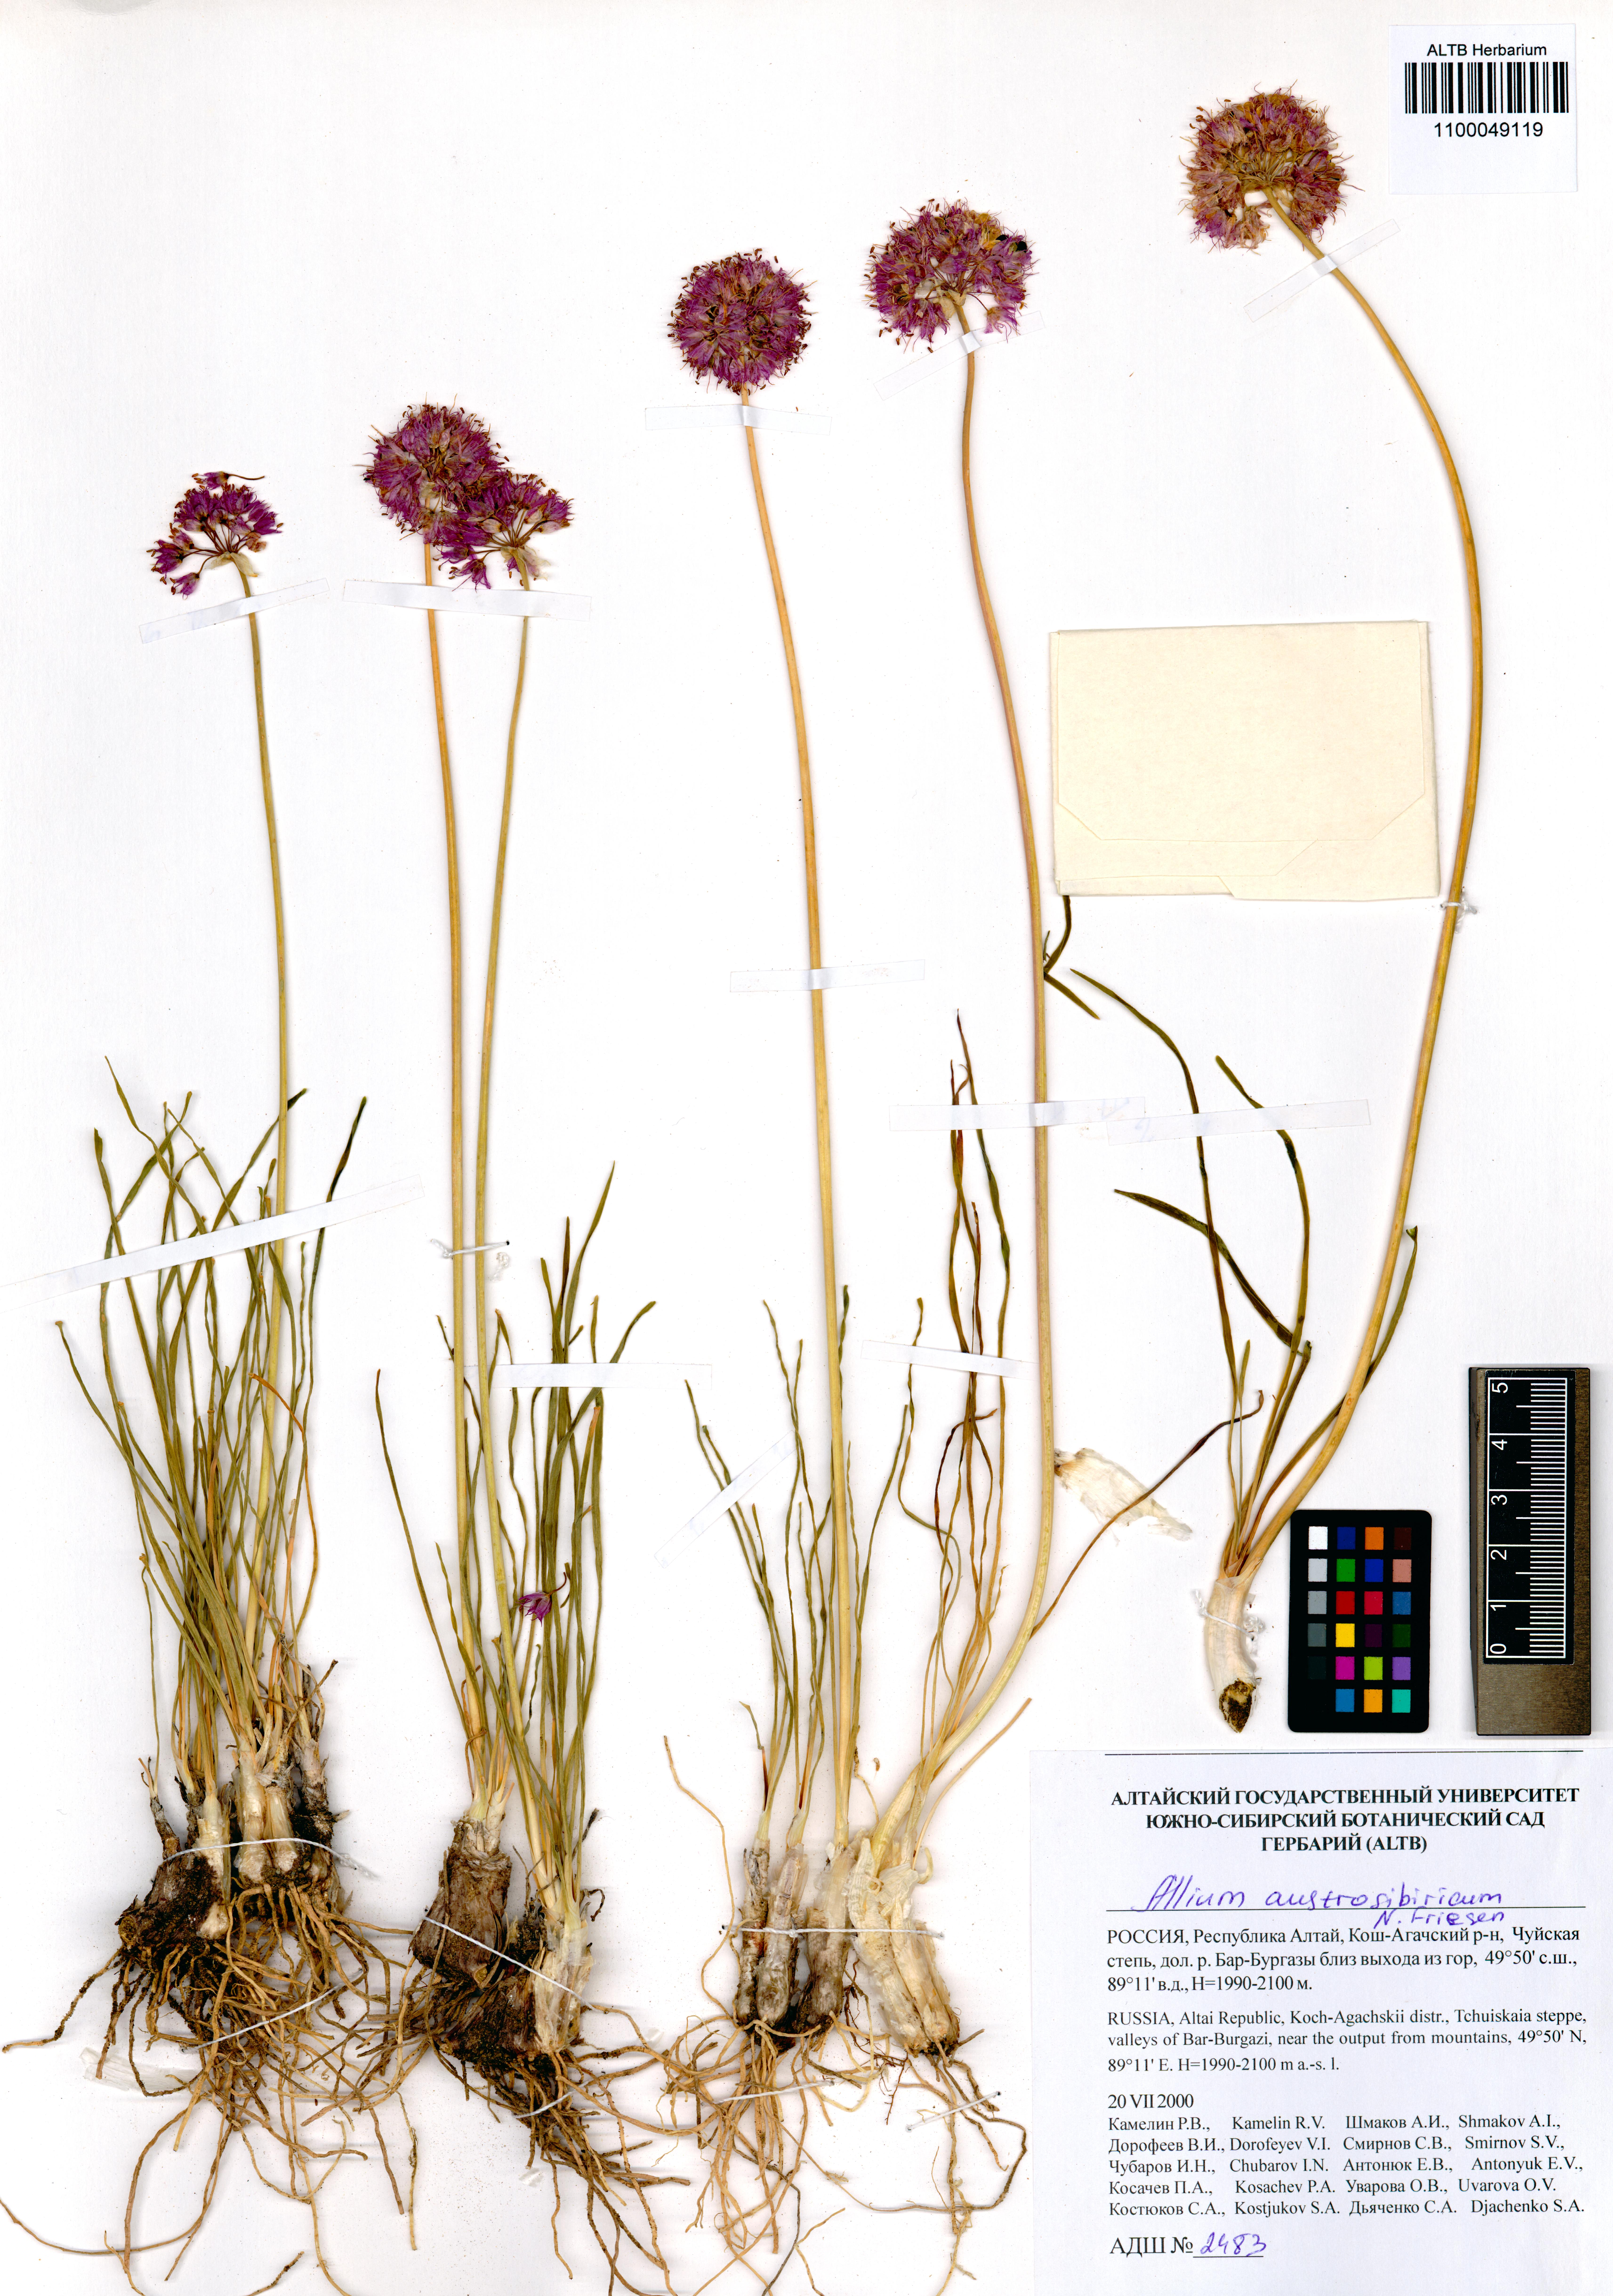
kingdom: Plantae
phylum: Tracheophyta
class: Liliopsida
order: Asparagales
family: Amaryllidaceae
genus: Allium
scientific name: Allium austrosibiricum
